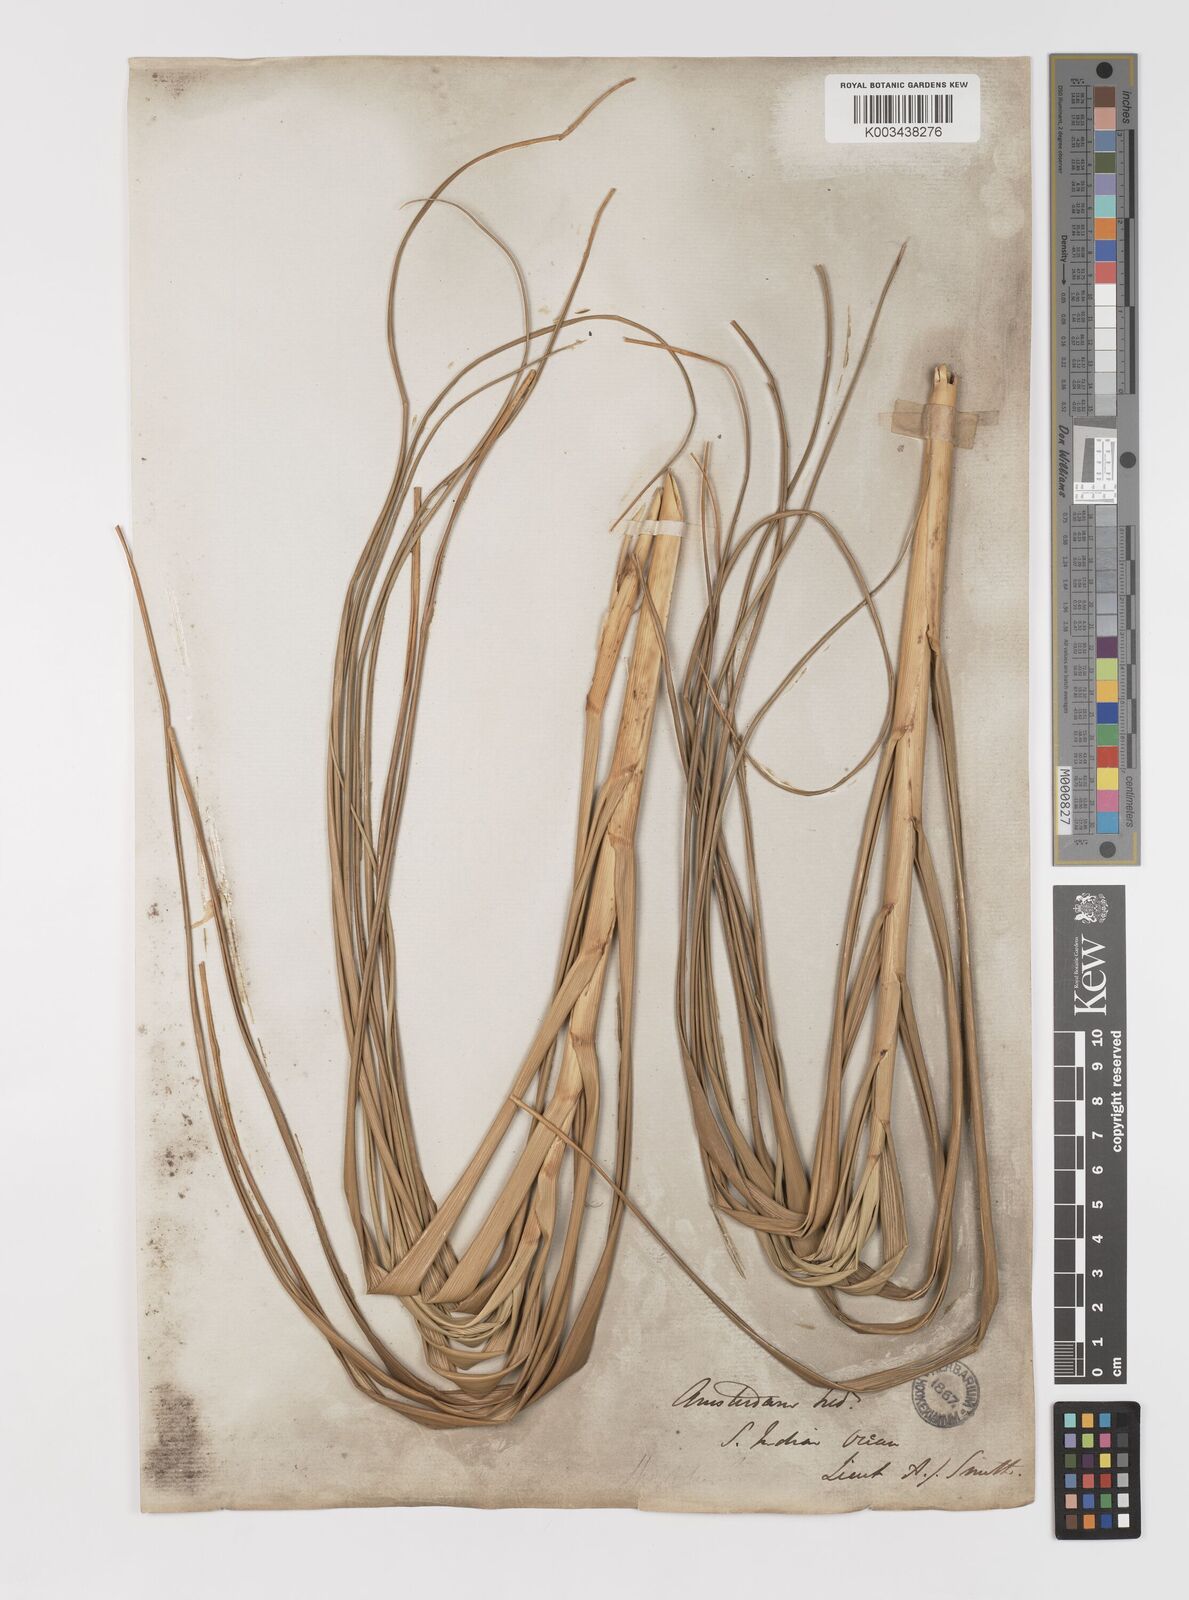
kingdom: Plantae
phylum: Tracheophyta
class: Liliopsida
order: Poales
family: Poaceae
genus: Sporobolus
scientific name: Sporobolus mobberleyanus
